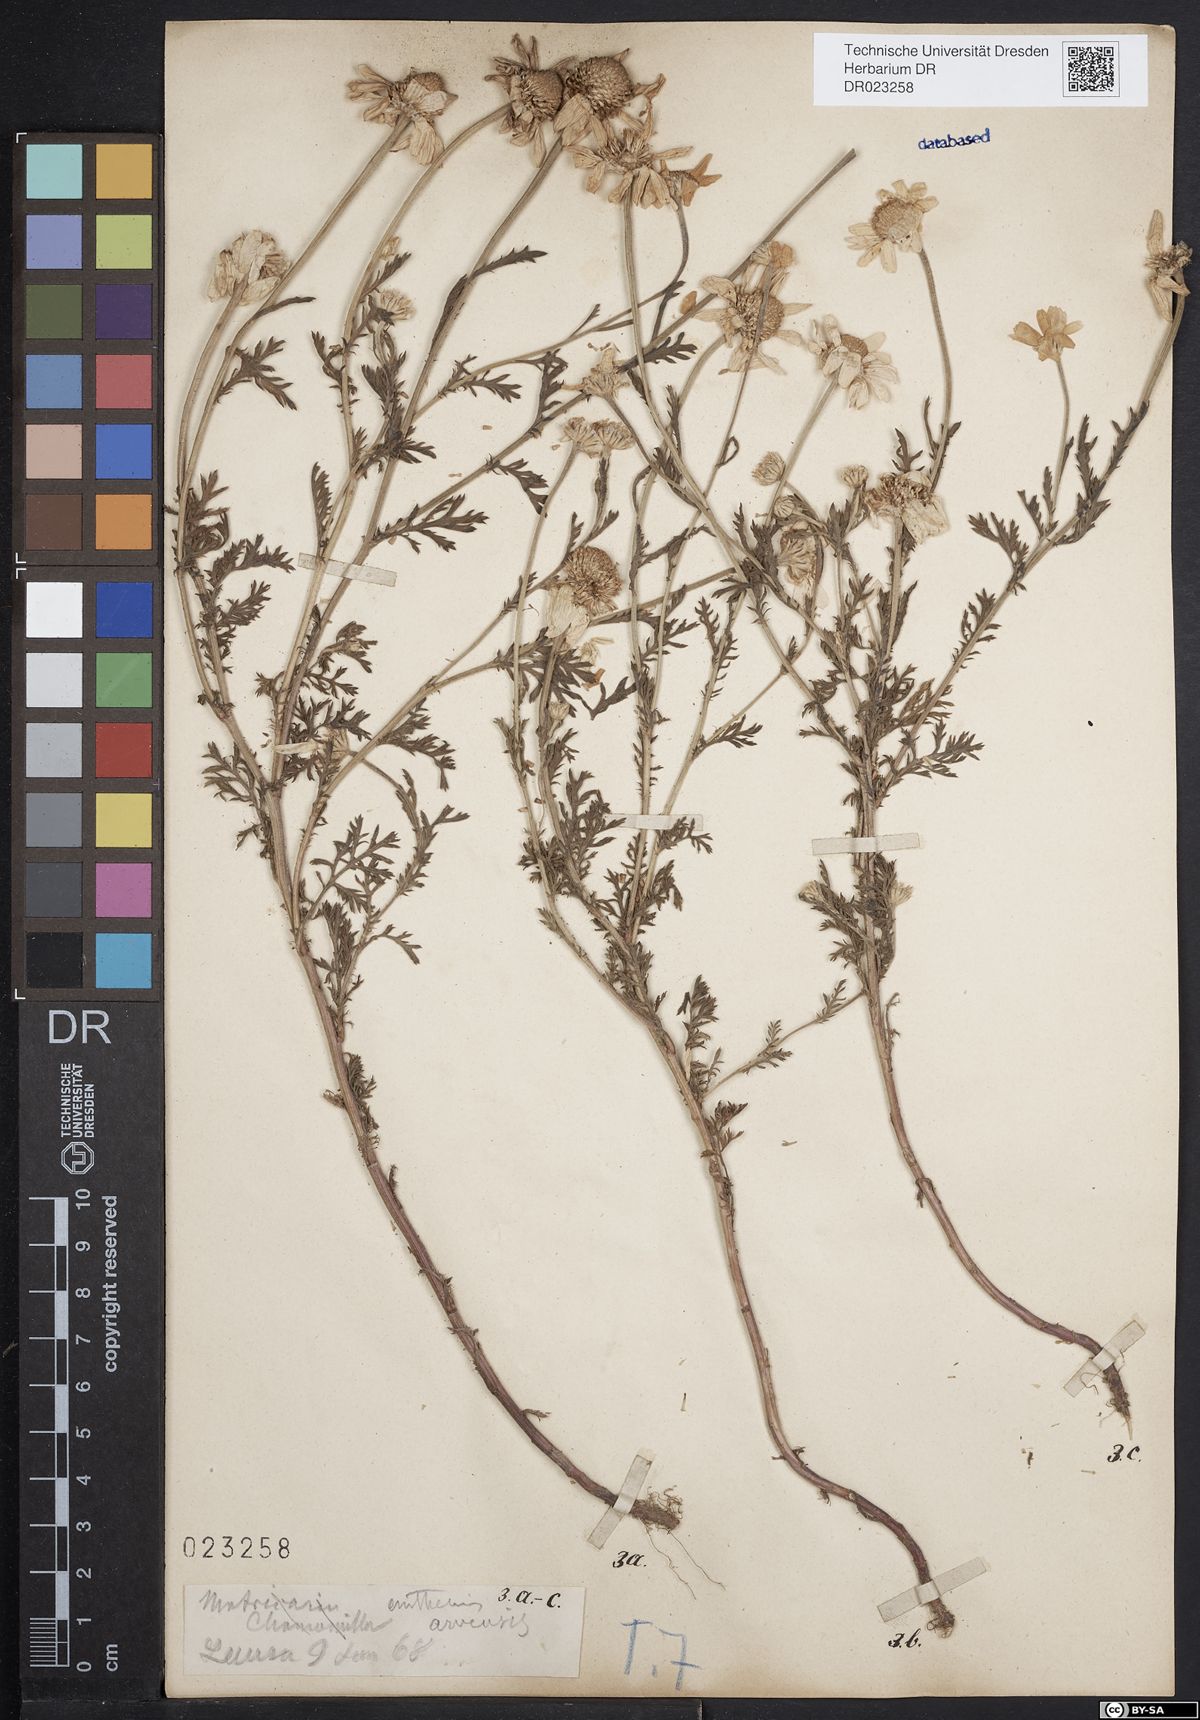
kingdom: Plantae
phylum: Tracheophyta
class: Magnoliopsida
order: Asterales
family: Asteraceae
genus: Anthemis
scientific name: Anthemis arvensis
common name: Corn chamomile
